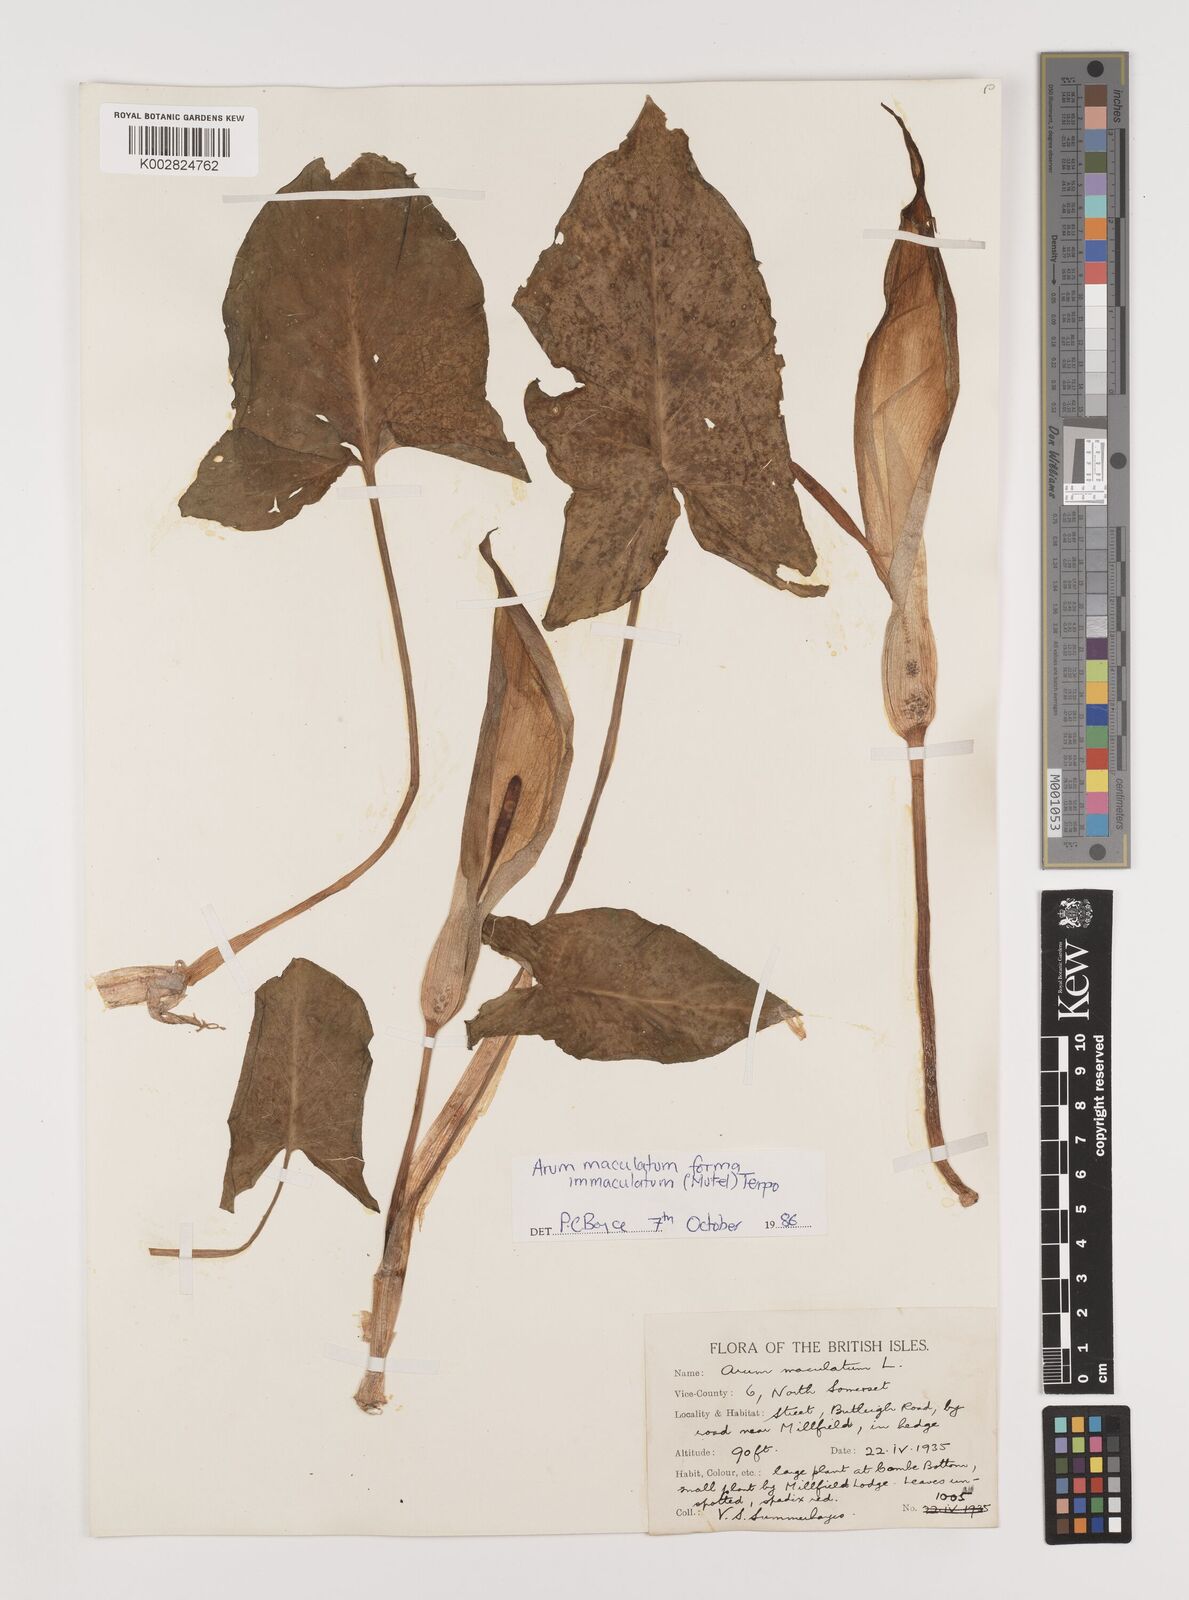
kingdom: Plantae
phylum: Tracheophyta
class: Liliopsida
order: Alismatales
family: Araceae
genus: Arum
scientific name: Arum maculatum
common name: Lords-and-ladies
